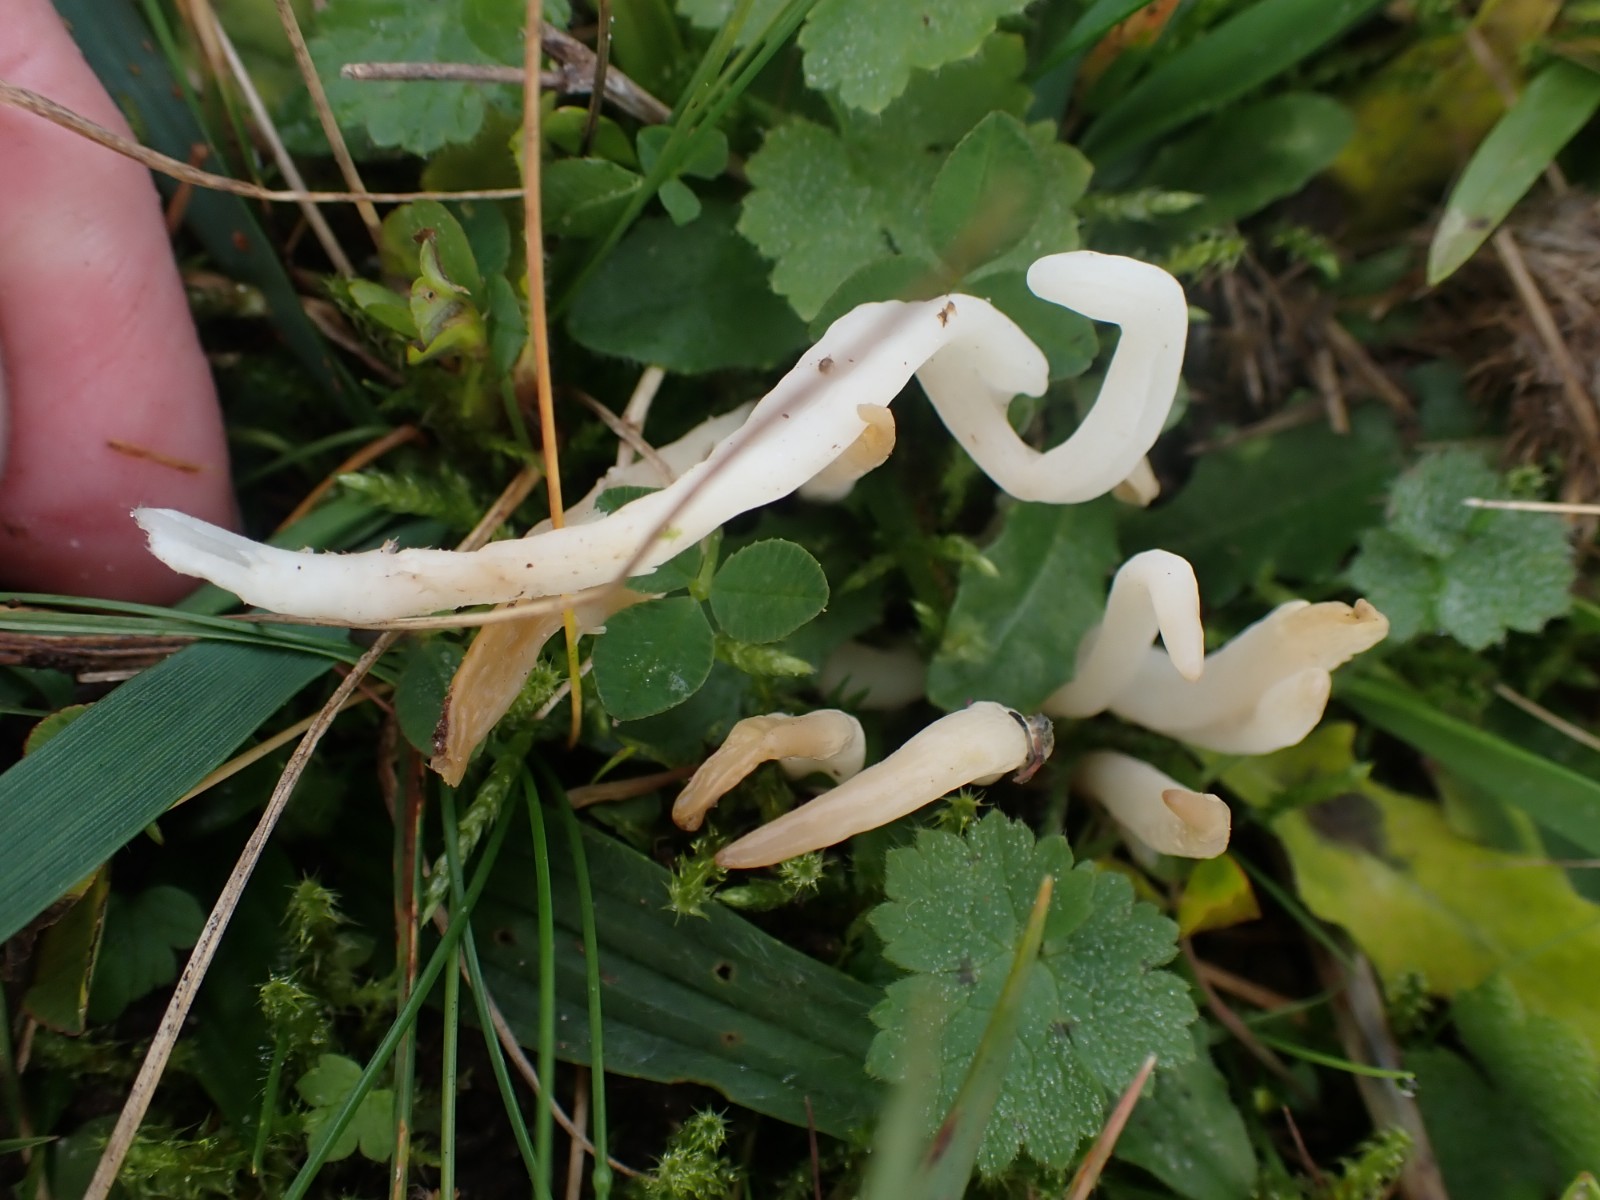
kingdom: Fungi
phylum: Basidiomycota
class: Agaricomycetes
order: Agaricales
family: Clavariaceae
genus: Clavaria
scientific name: Clavaria
